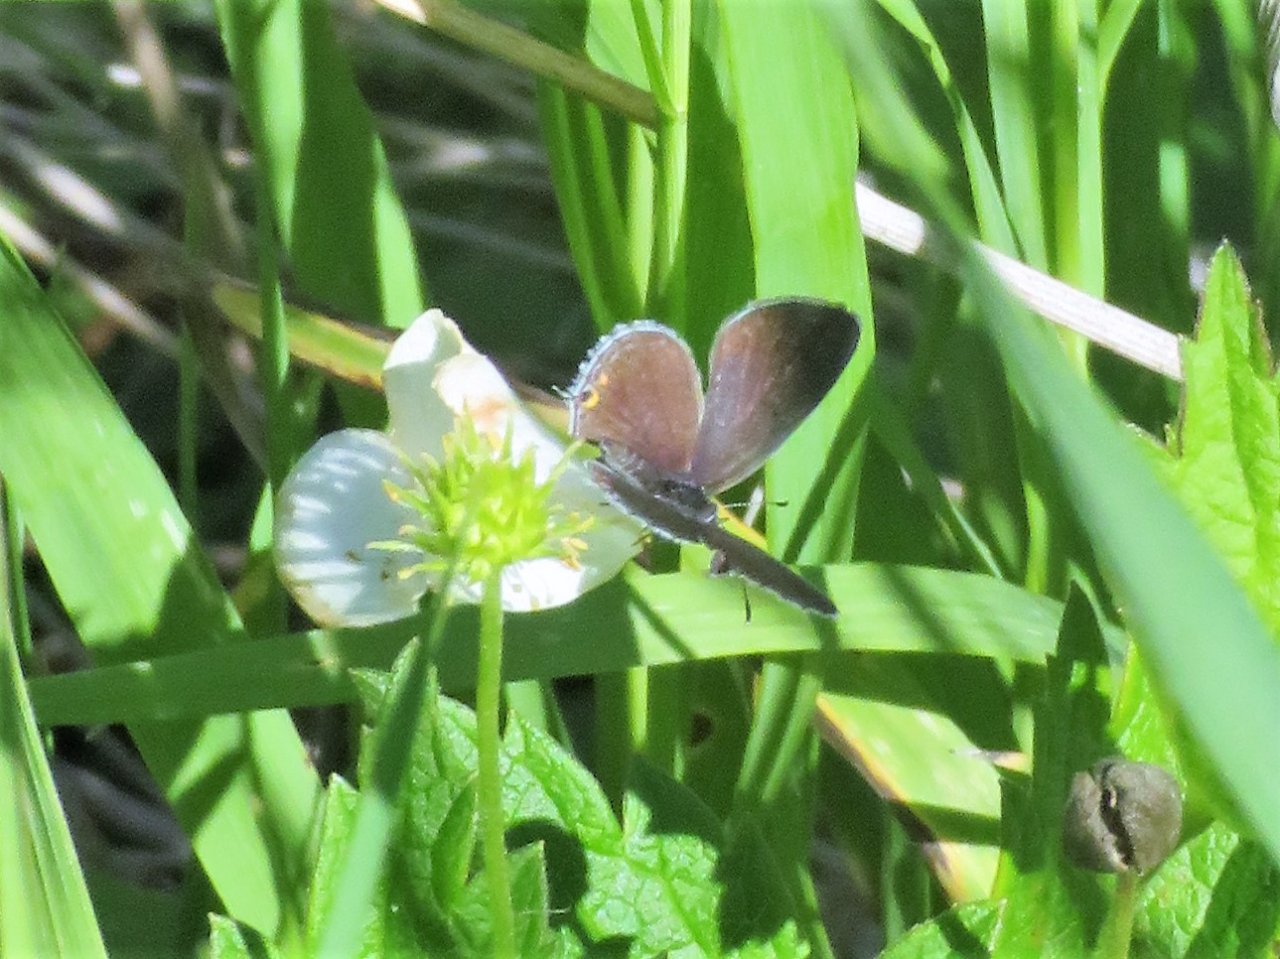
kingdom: Animalia
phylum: Arthropoda
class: Insecta
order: Lepidoptera
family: Lycaenidae
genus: Elkalyce
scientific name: Elkalyce comyntas
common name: Eastern Tailed-Blue
